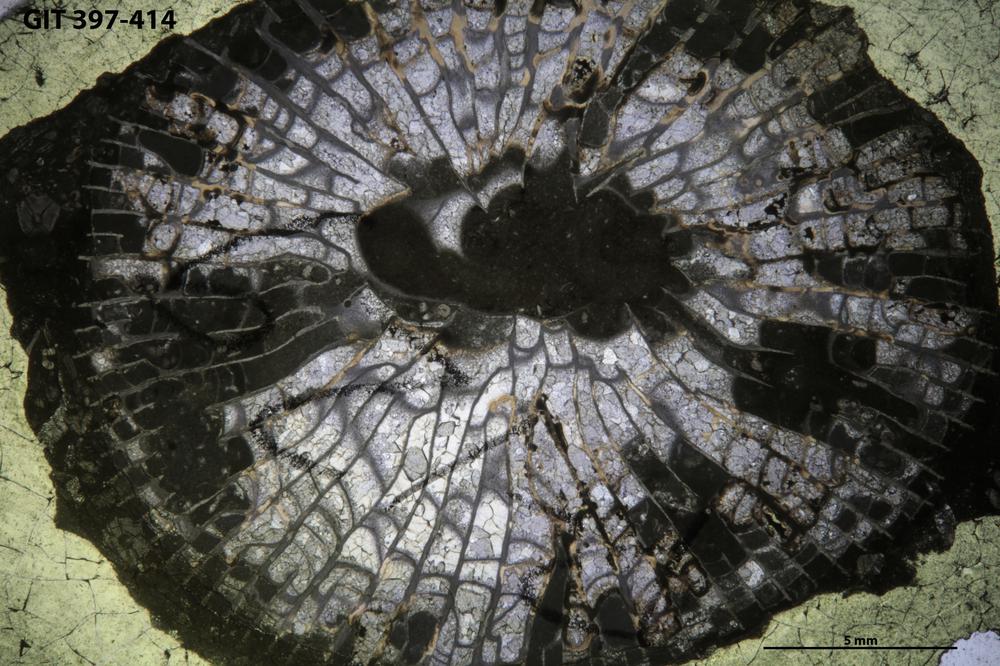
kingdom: Animalia
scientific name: Animalia
